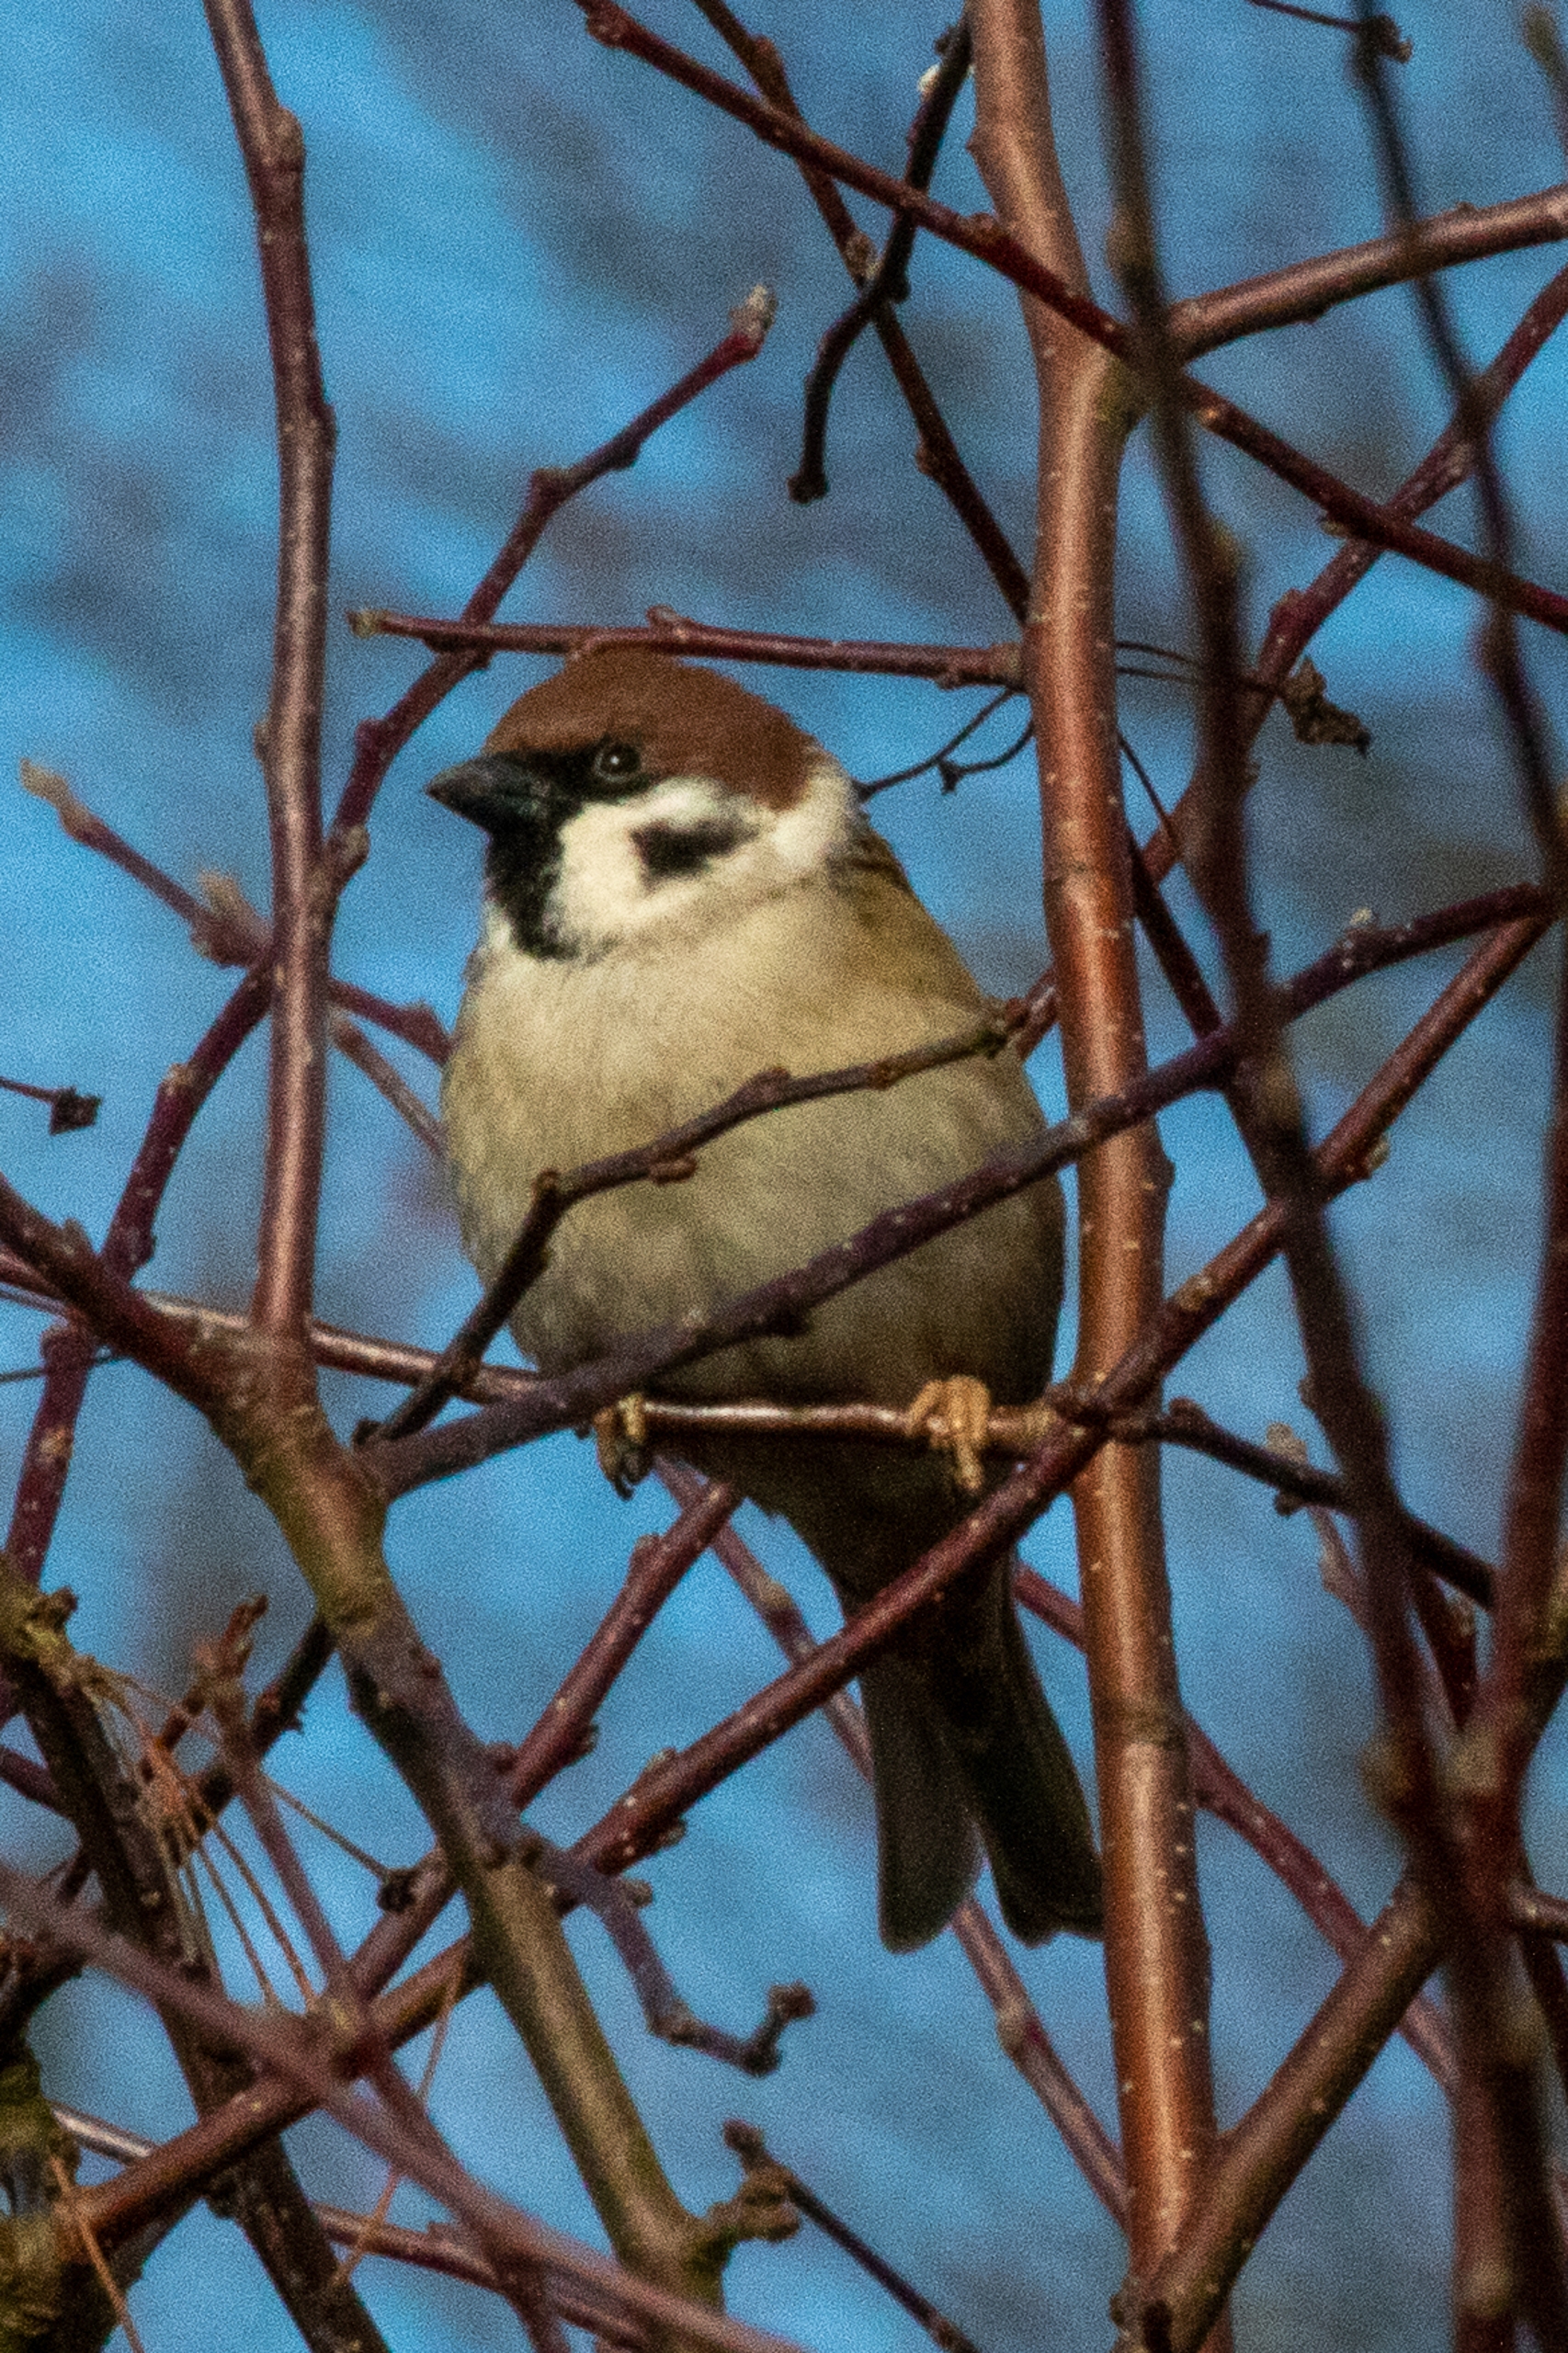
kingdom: Animalia
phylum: Chordata
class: Aves
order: Passeriformes
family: Passeridae
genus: Passer
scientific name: Passer montanus
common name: Skovspurv
